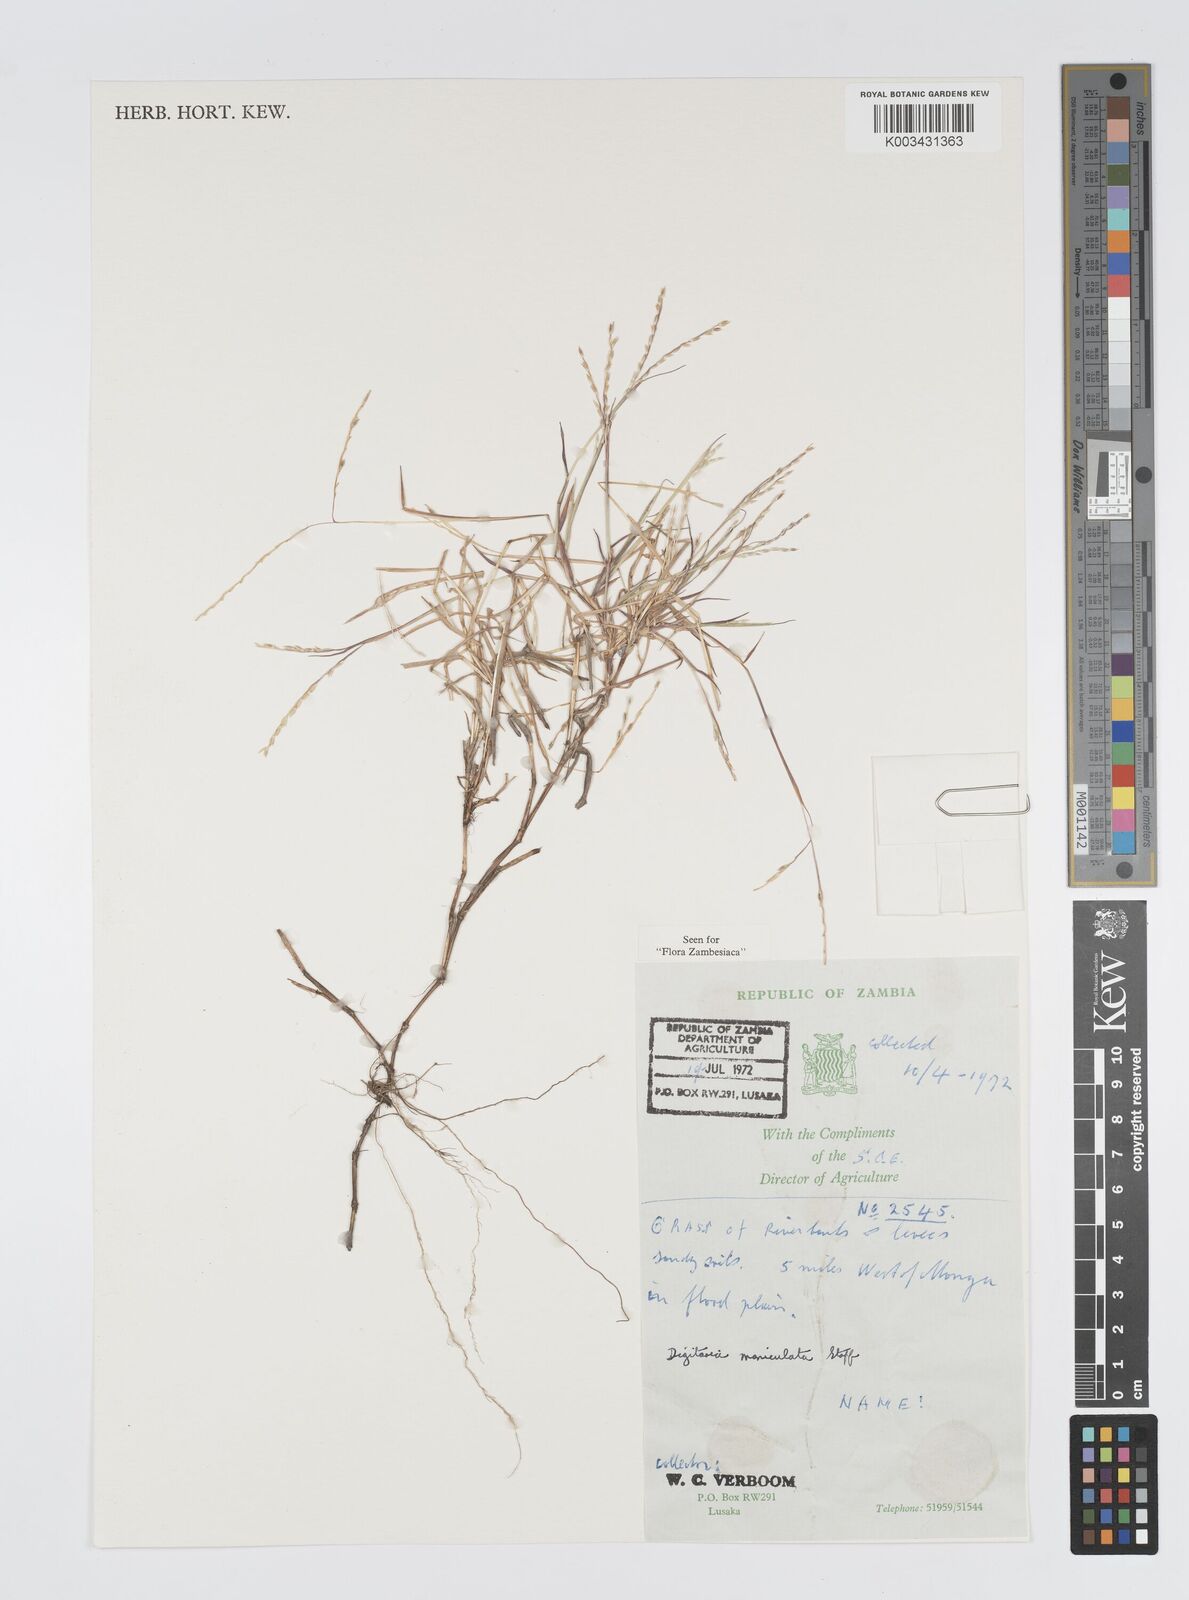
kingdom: Plantae
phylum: Tracheophyta
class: Liliopsida
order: Poales
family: Poaceae
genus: Digitaria
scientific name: Digitaria maniculata
